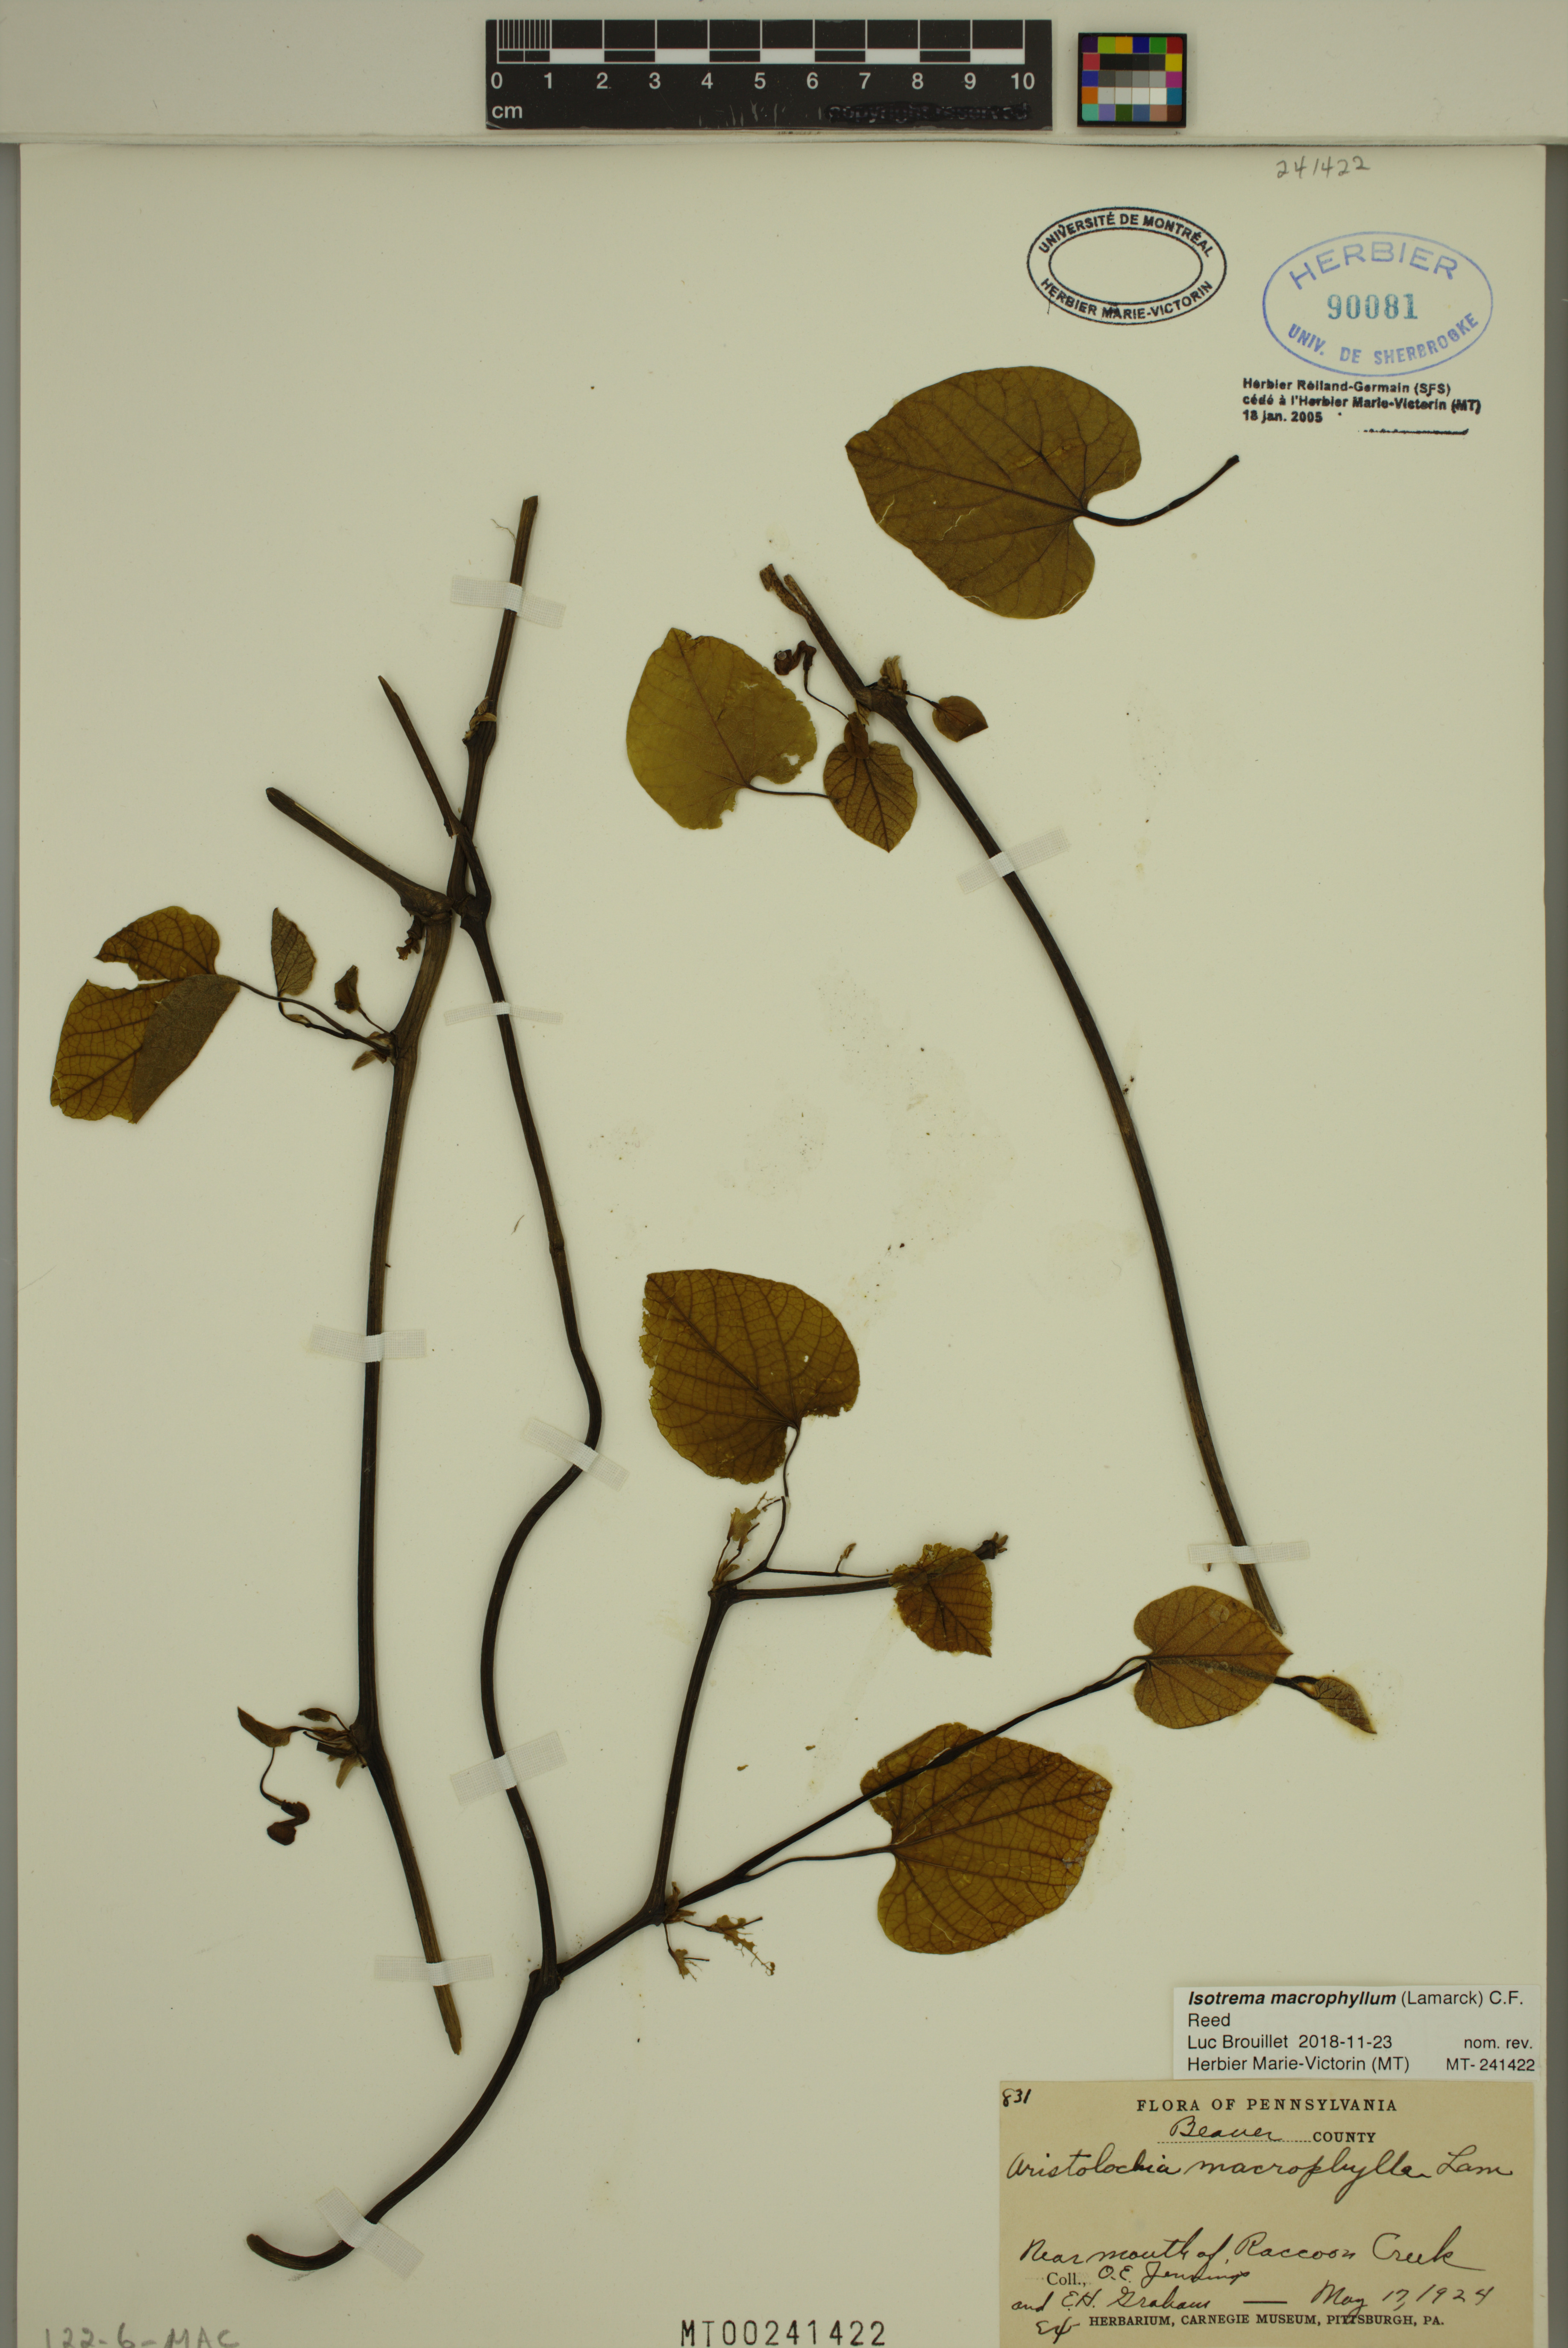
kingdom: Plantae
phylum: Tracheophyta
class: Magnoliopsida
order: Piperales
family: Aristolochiaceae
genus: Isotrema
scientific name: Isotrema macrophyllum
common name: Dutchman's-pipe
